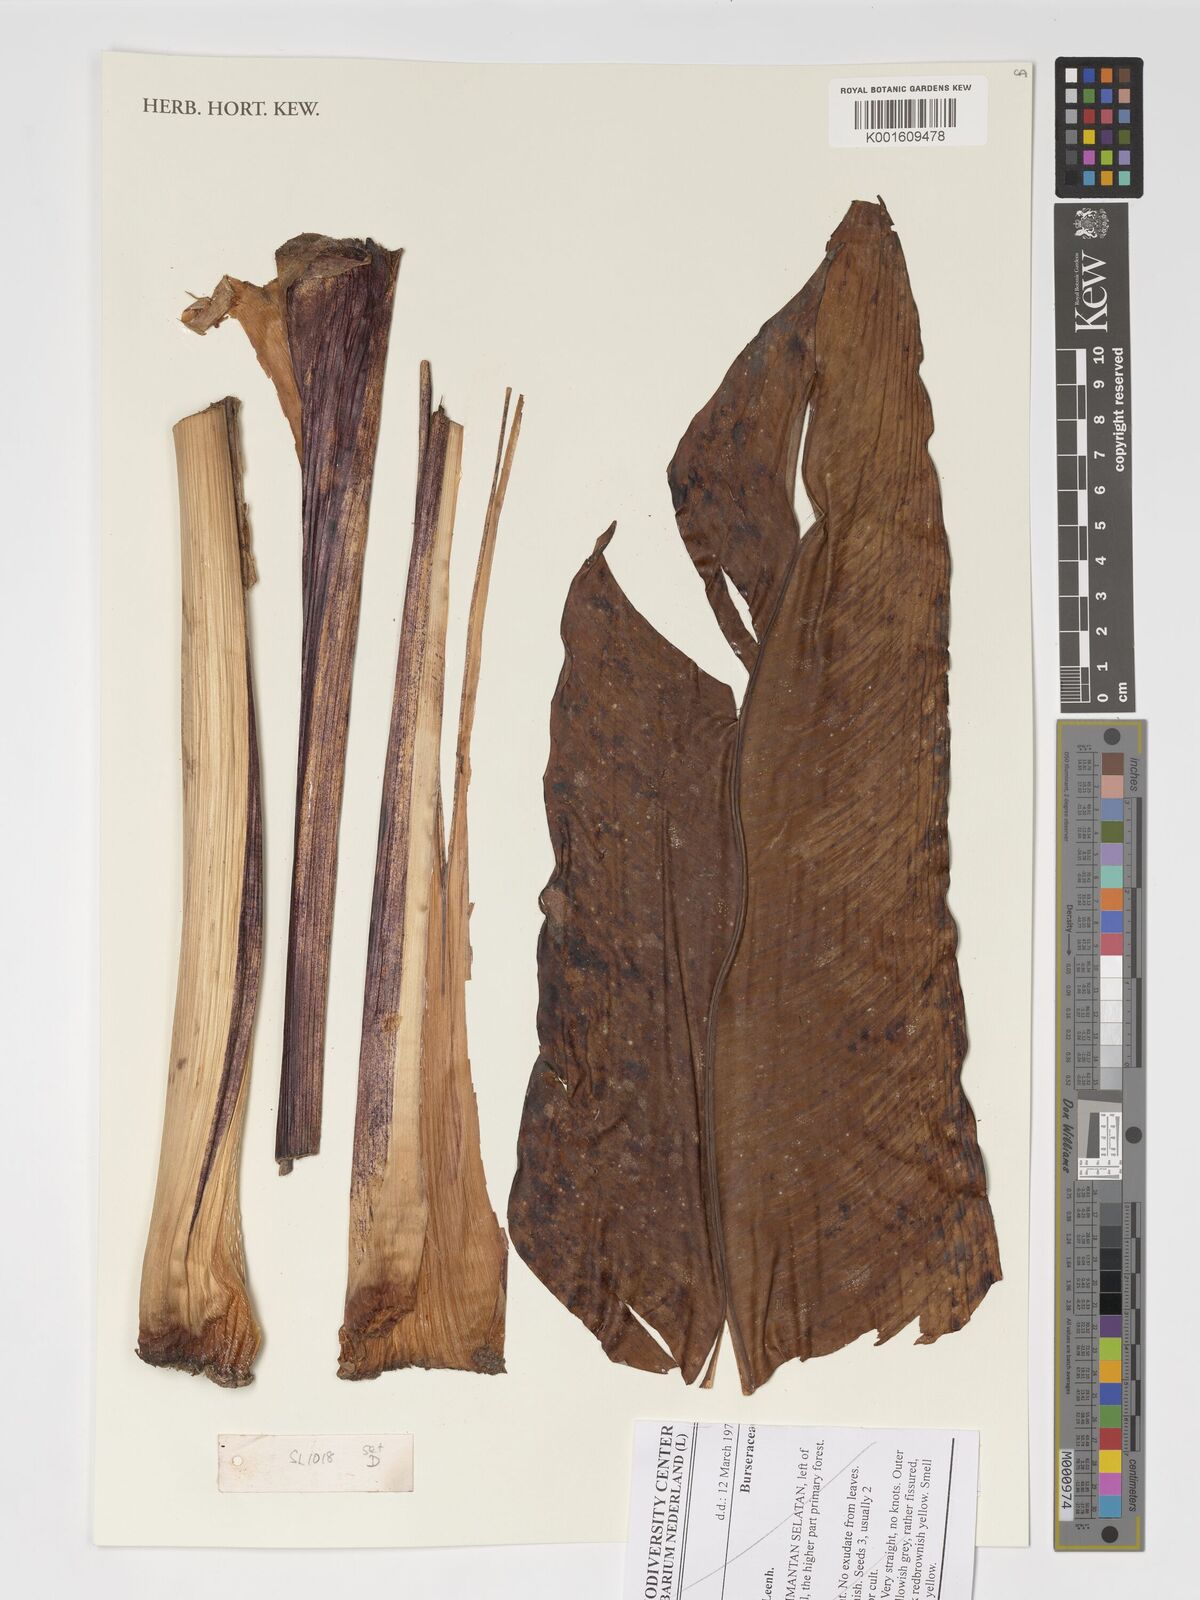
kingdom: Plantae
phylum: Tracheophyta
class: Liliopsida
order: Zingiberales
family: Musaceae
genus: Musa
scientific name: Musa lawitiensis
